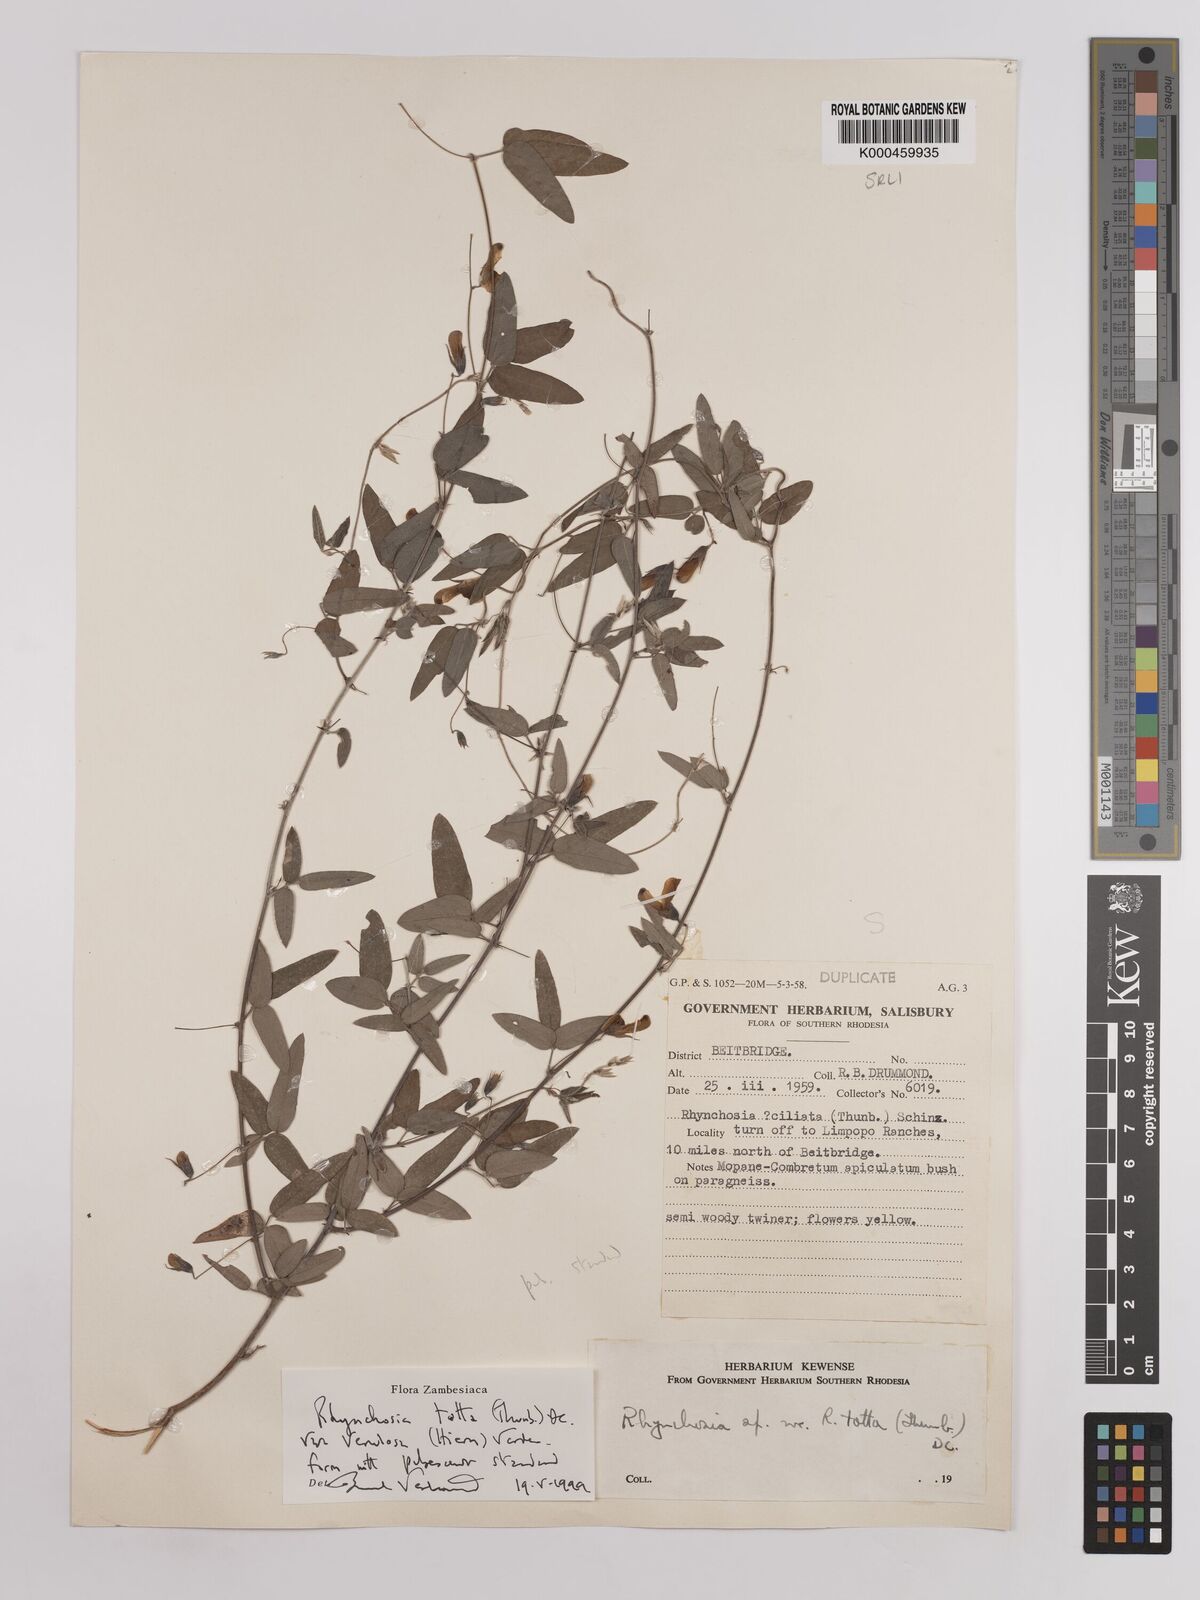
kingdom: Plantae
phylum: Tracheophyta
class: Magnoliopsida
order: Fabales
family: Fabaceae
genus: Rhynchosia
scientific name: Rhynchosia totta
